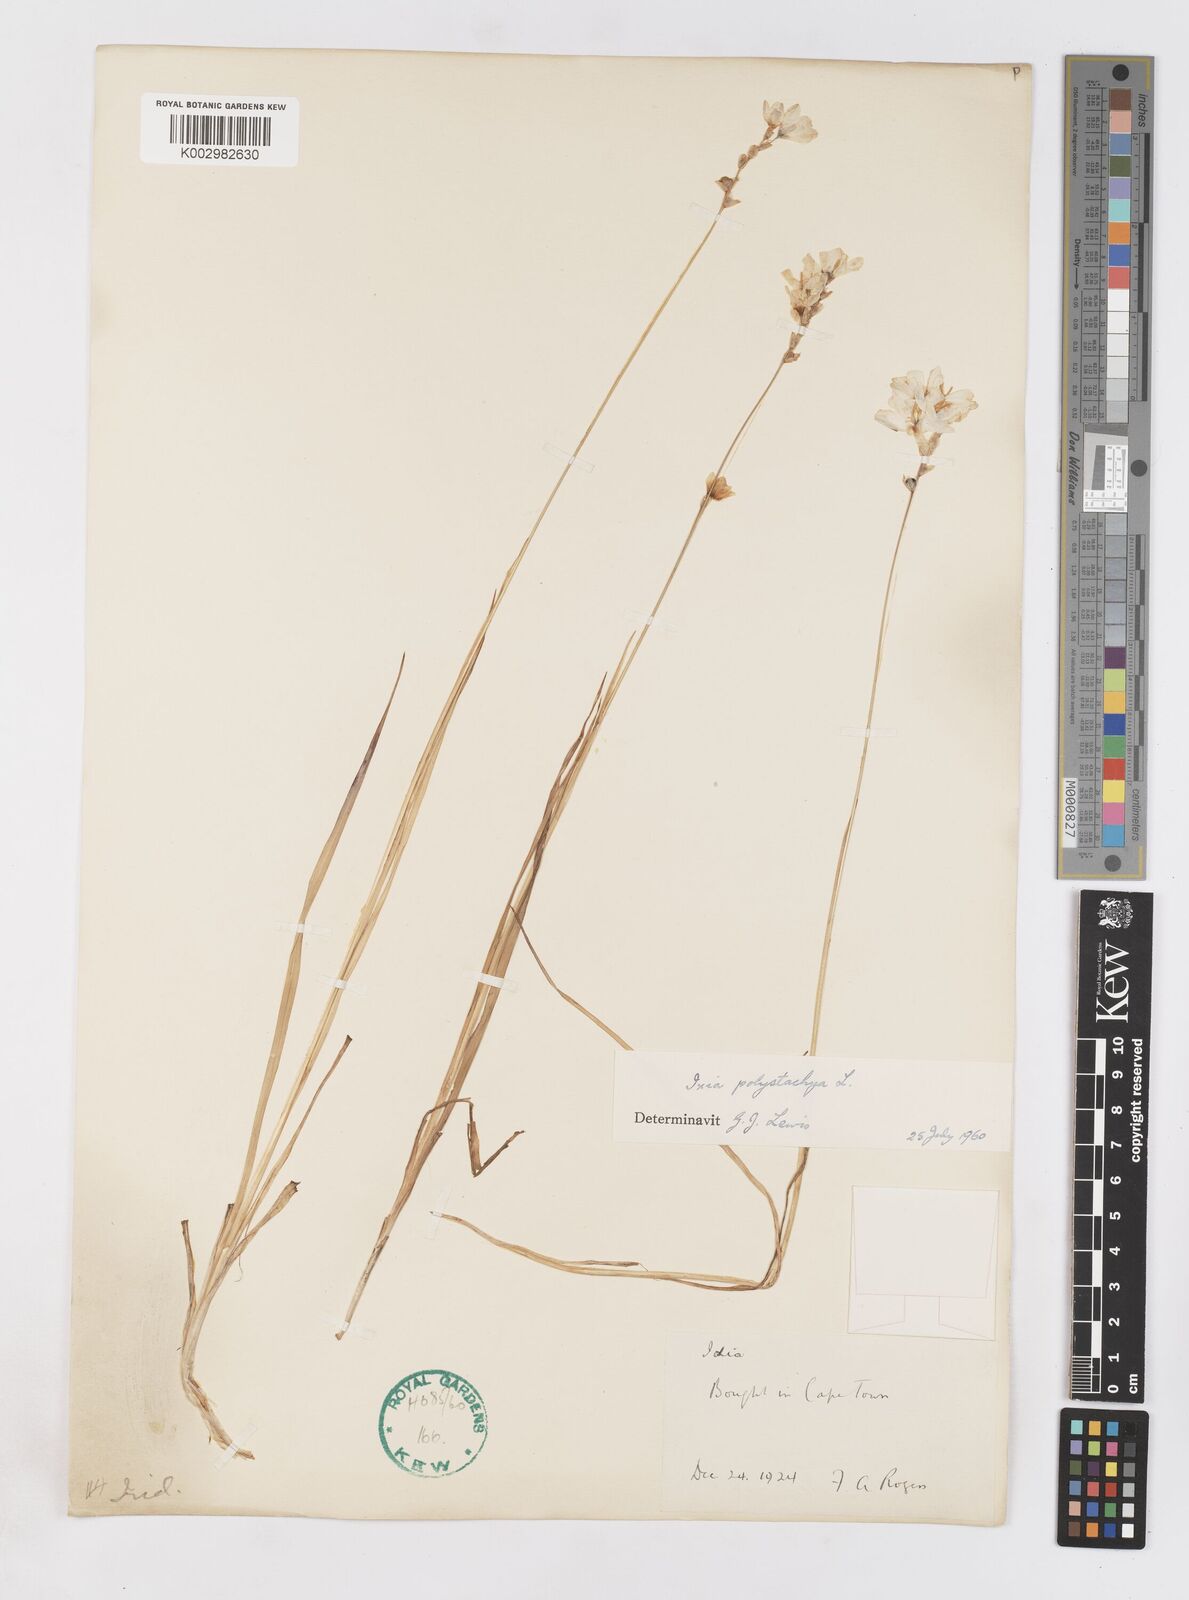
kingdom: Plantae
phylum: Tracheophyta
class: Liliopsida
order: Asparagales
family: Iridaceae
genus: Ixia
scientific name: Ixia polystachya
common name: White-and-yellow-flower cornlily
